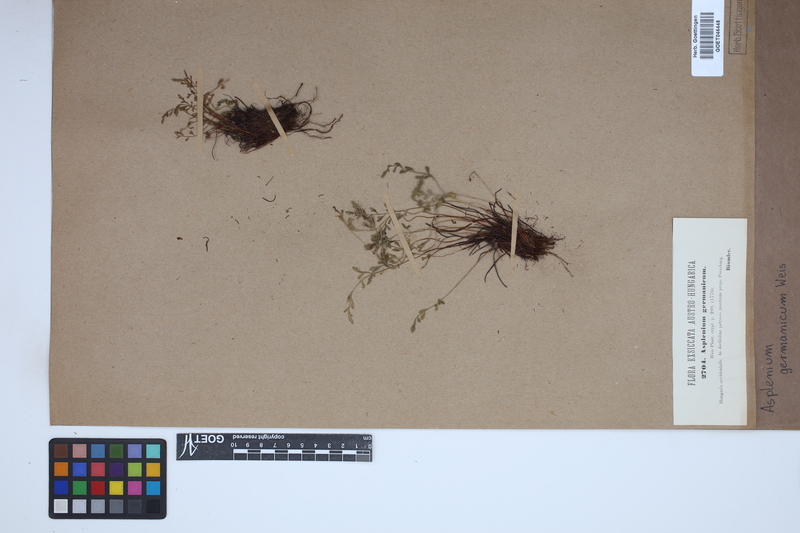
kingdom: Plantae
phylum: Tracheophyta
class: Polypodiopsida
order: Polypodiales
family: Aspleniaceae
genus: Asplenium
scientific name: Asplenium
